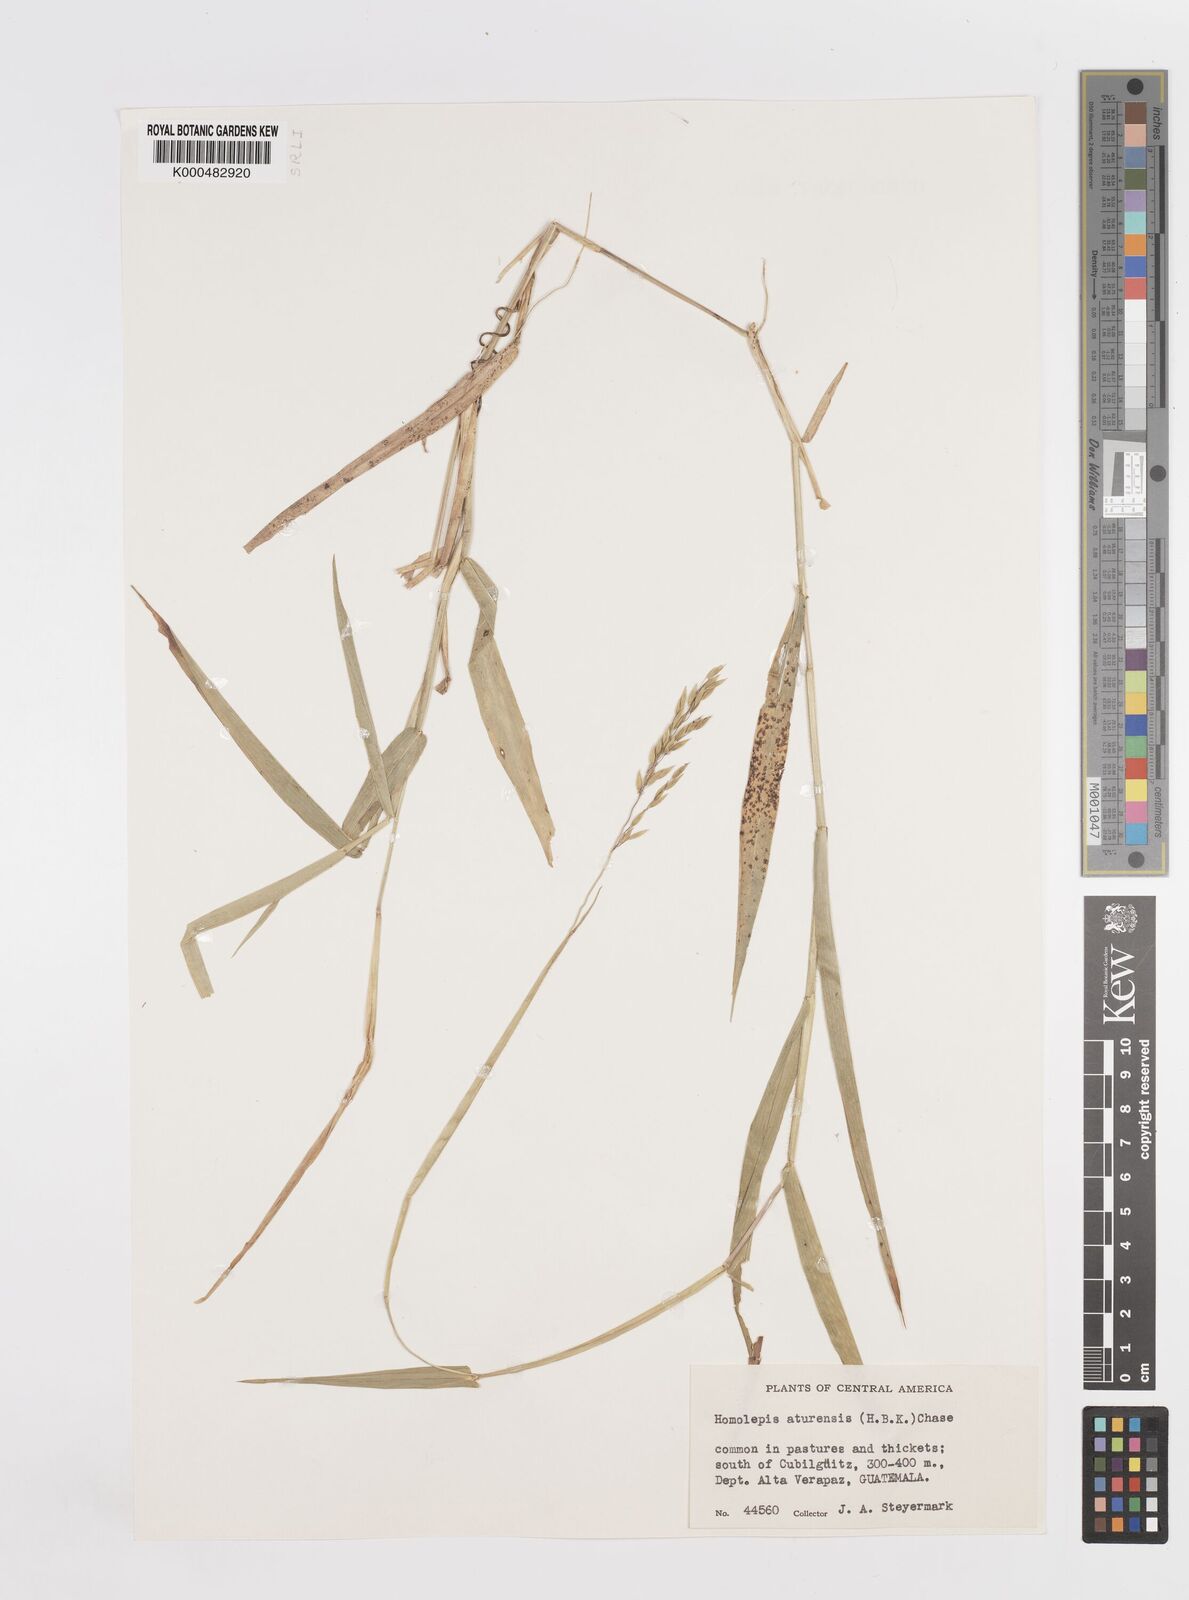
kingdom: Plantae
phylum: Tracheophyta
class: Liliopsida
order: Poales
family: Poaceae
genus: Homolepis
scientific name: Homolepis aturensis
